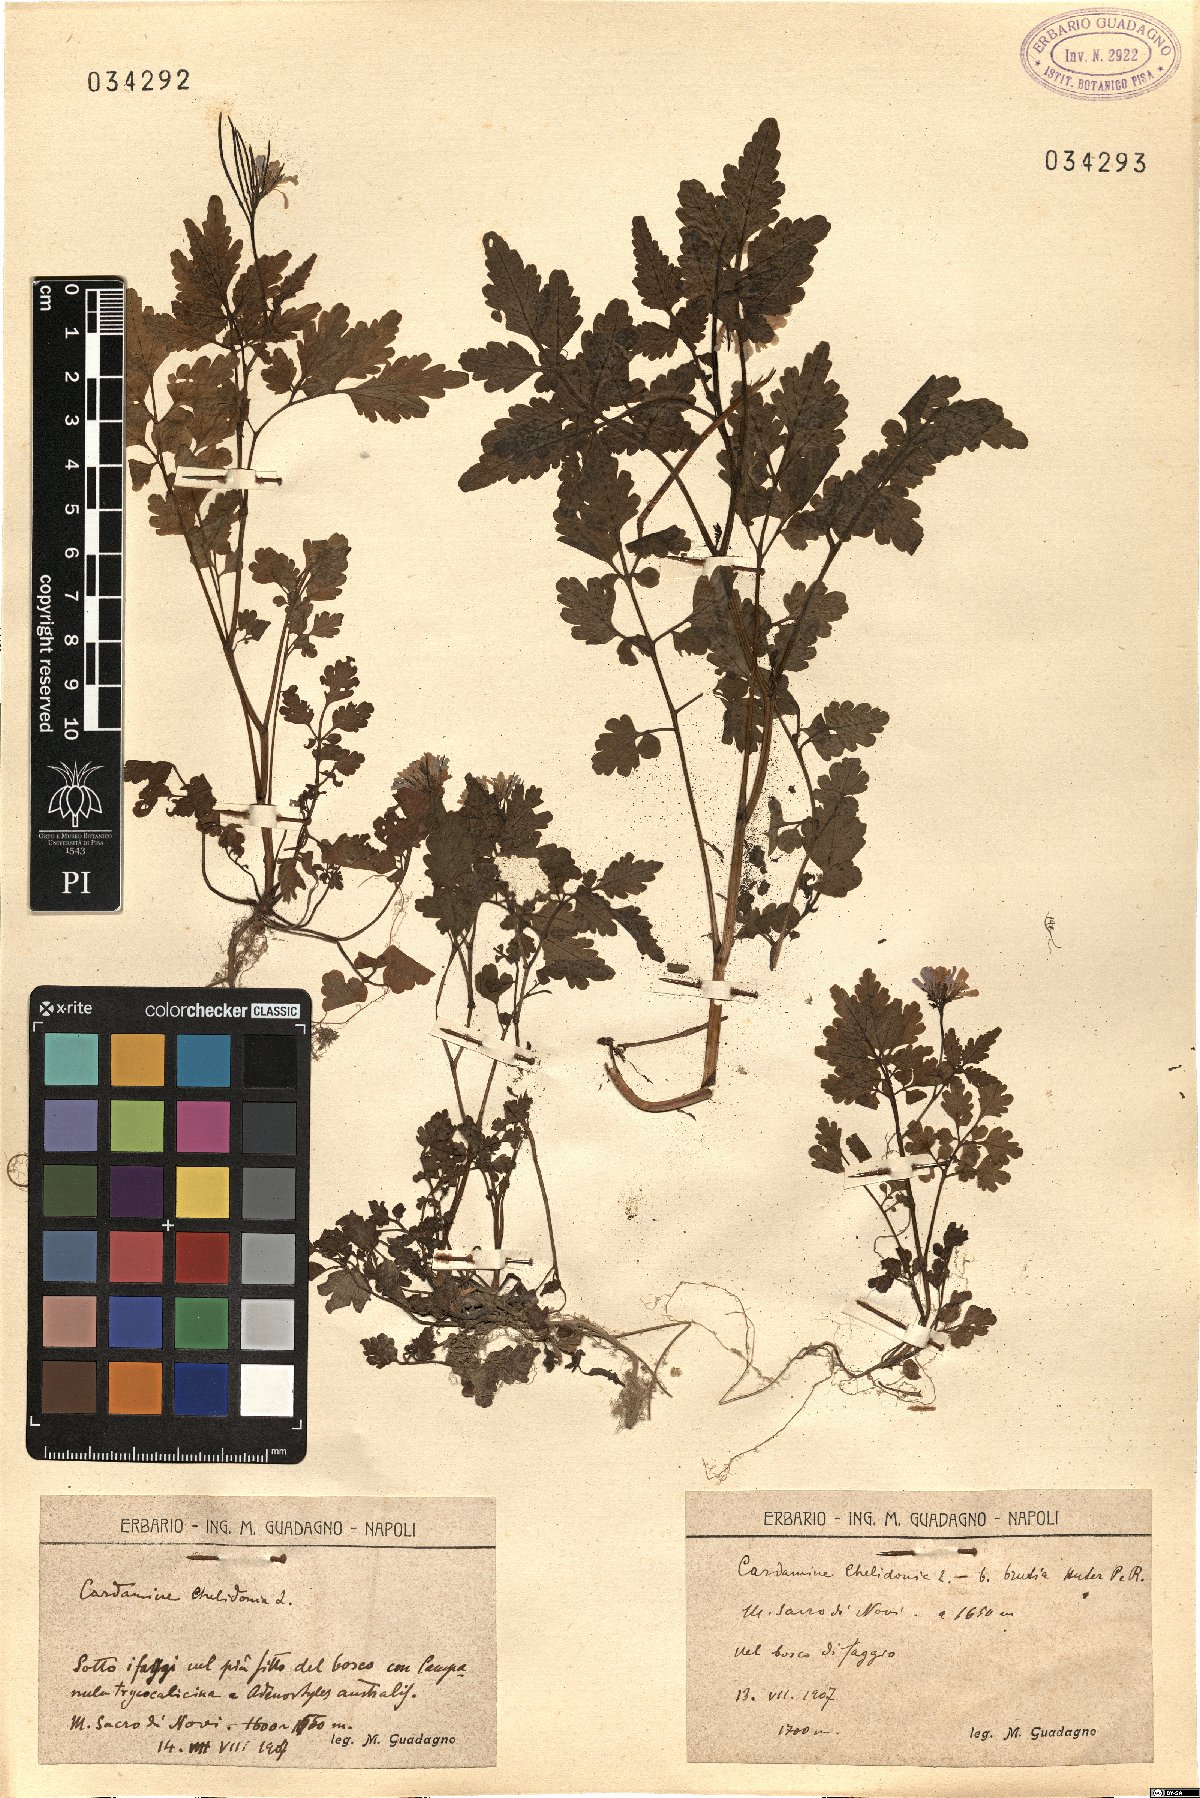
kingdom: Plantae
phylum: Tracheophyta
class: Magnoliopsida
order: Brassicales
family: Brassicaceae
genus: Cardamine
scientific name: Cardamine chelidonia
